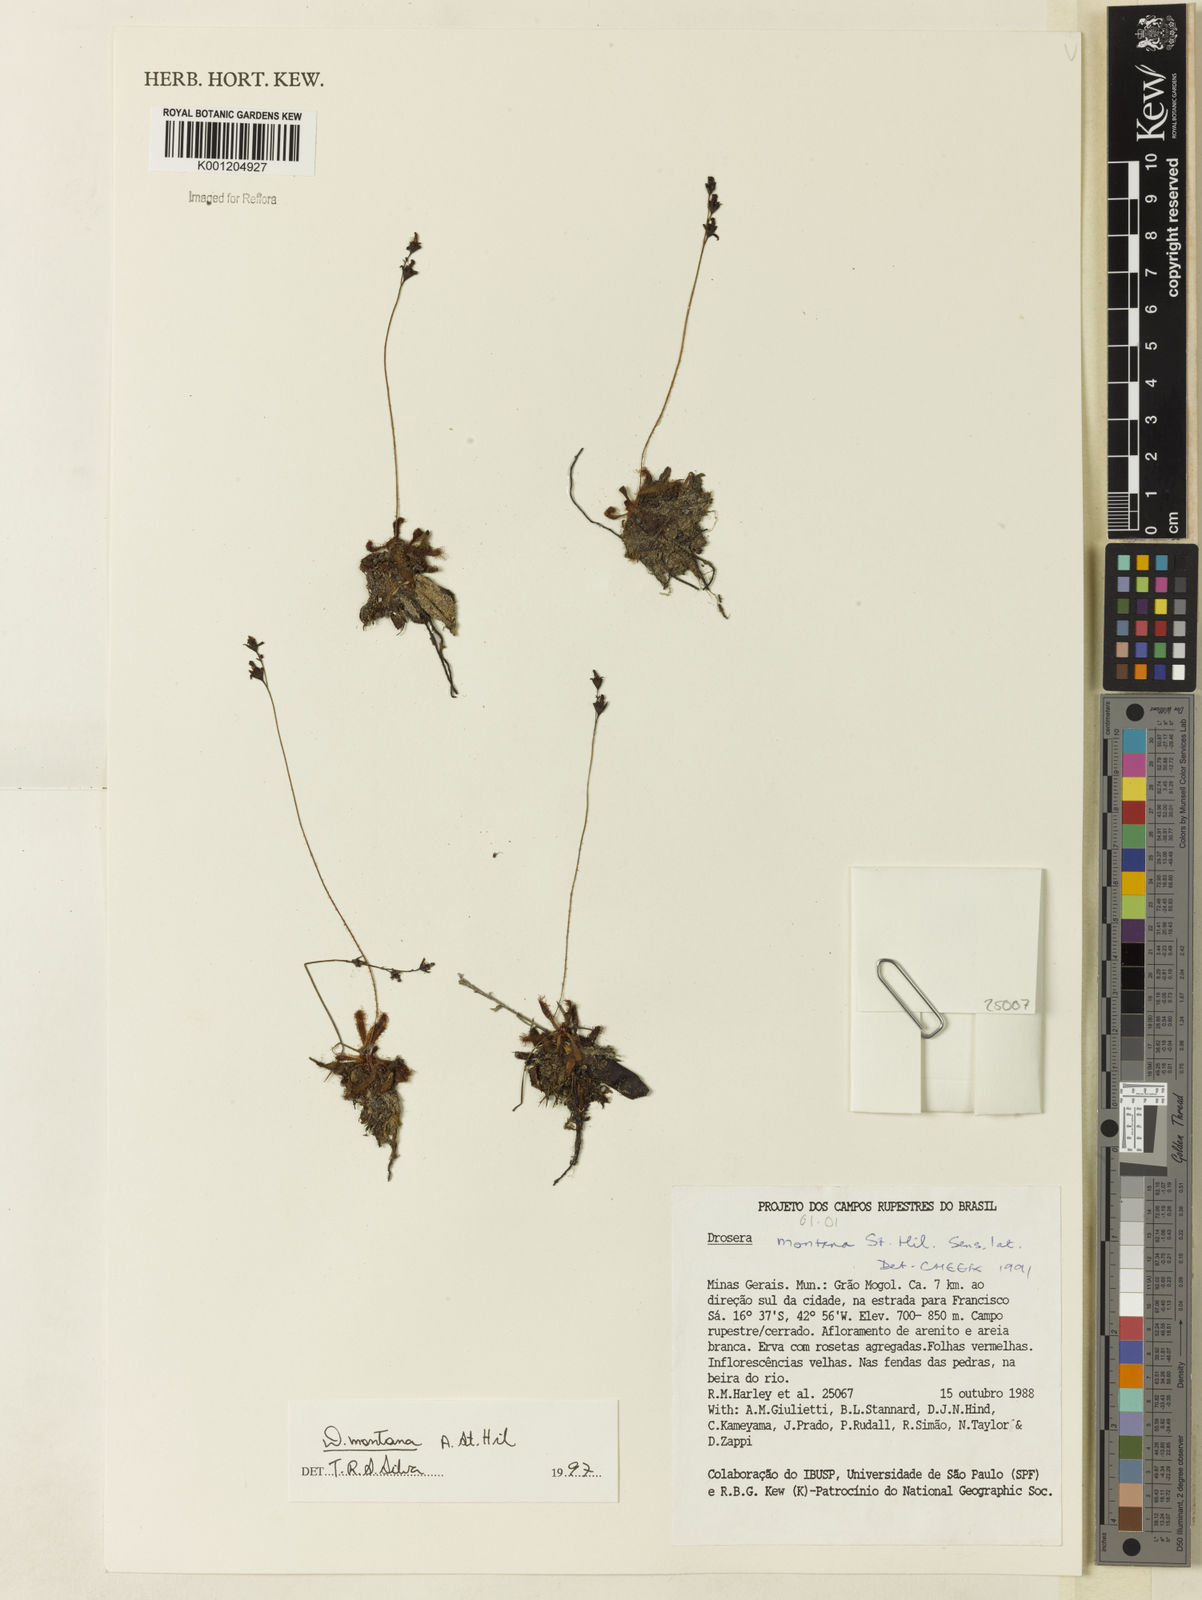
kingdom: Plantae
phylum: Tracheophyta
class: Magnoliopsida
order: Caryophyllales
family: Droseraceae
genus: Drosera
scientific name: Drosera montana
